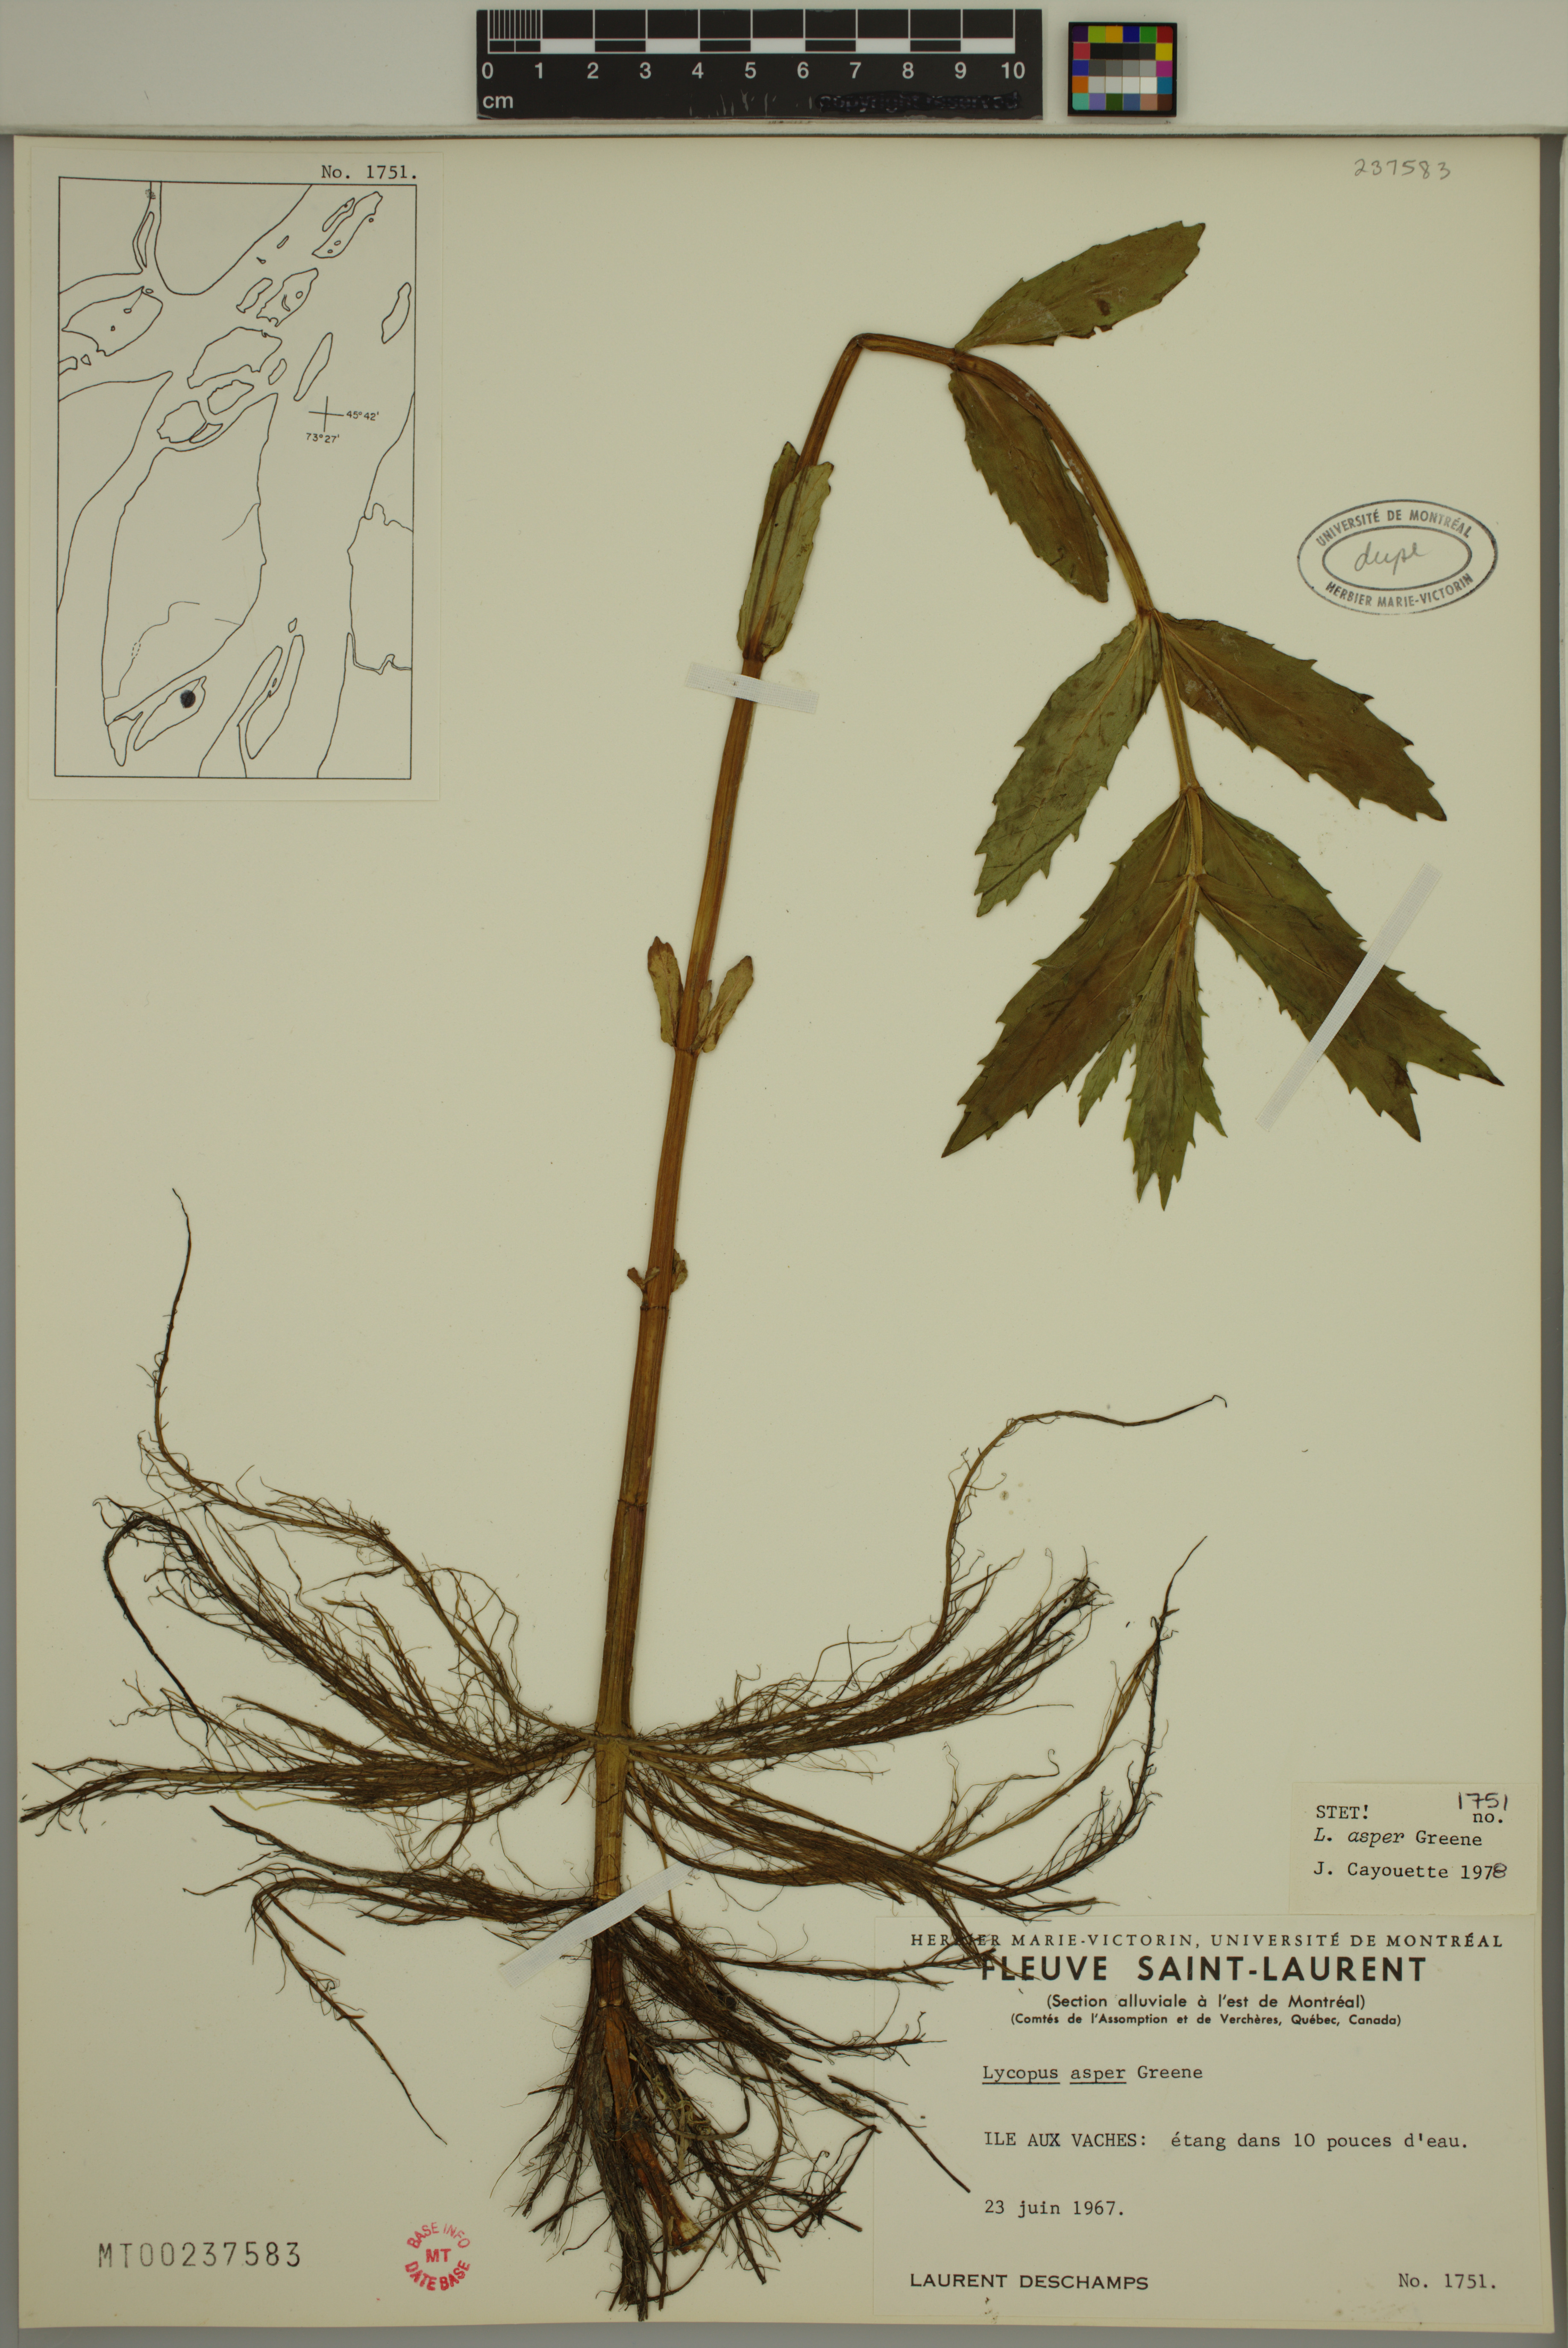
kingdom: Plantae
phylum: Tracheophyta
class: Magnoliopsida
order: Lamiales
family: Lamiaceae
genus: Lycopus
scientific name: Lycopus asper
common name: Rough water-horehound
